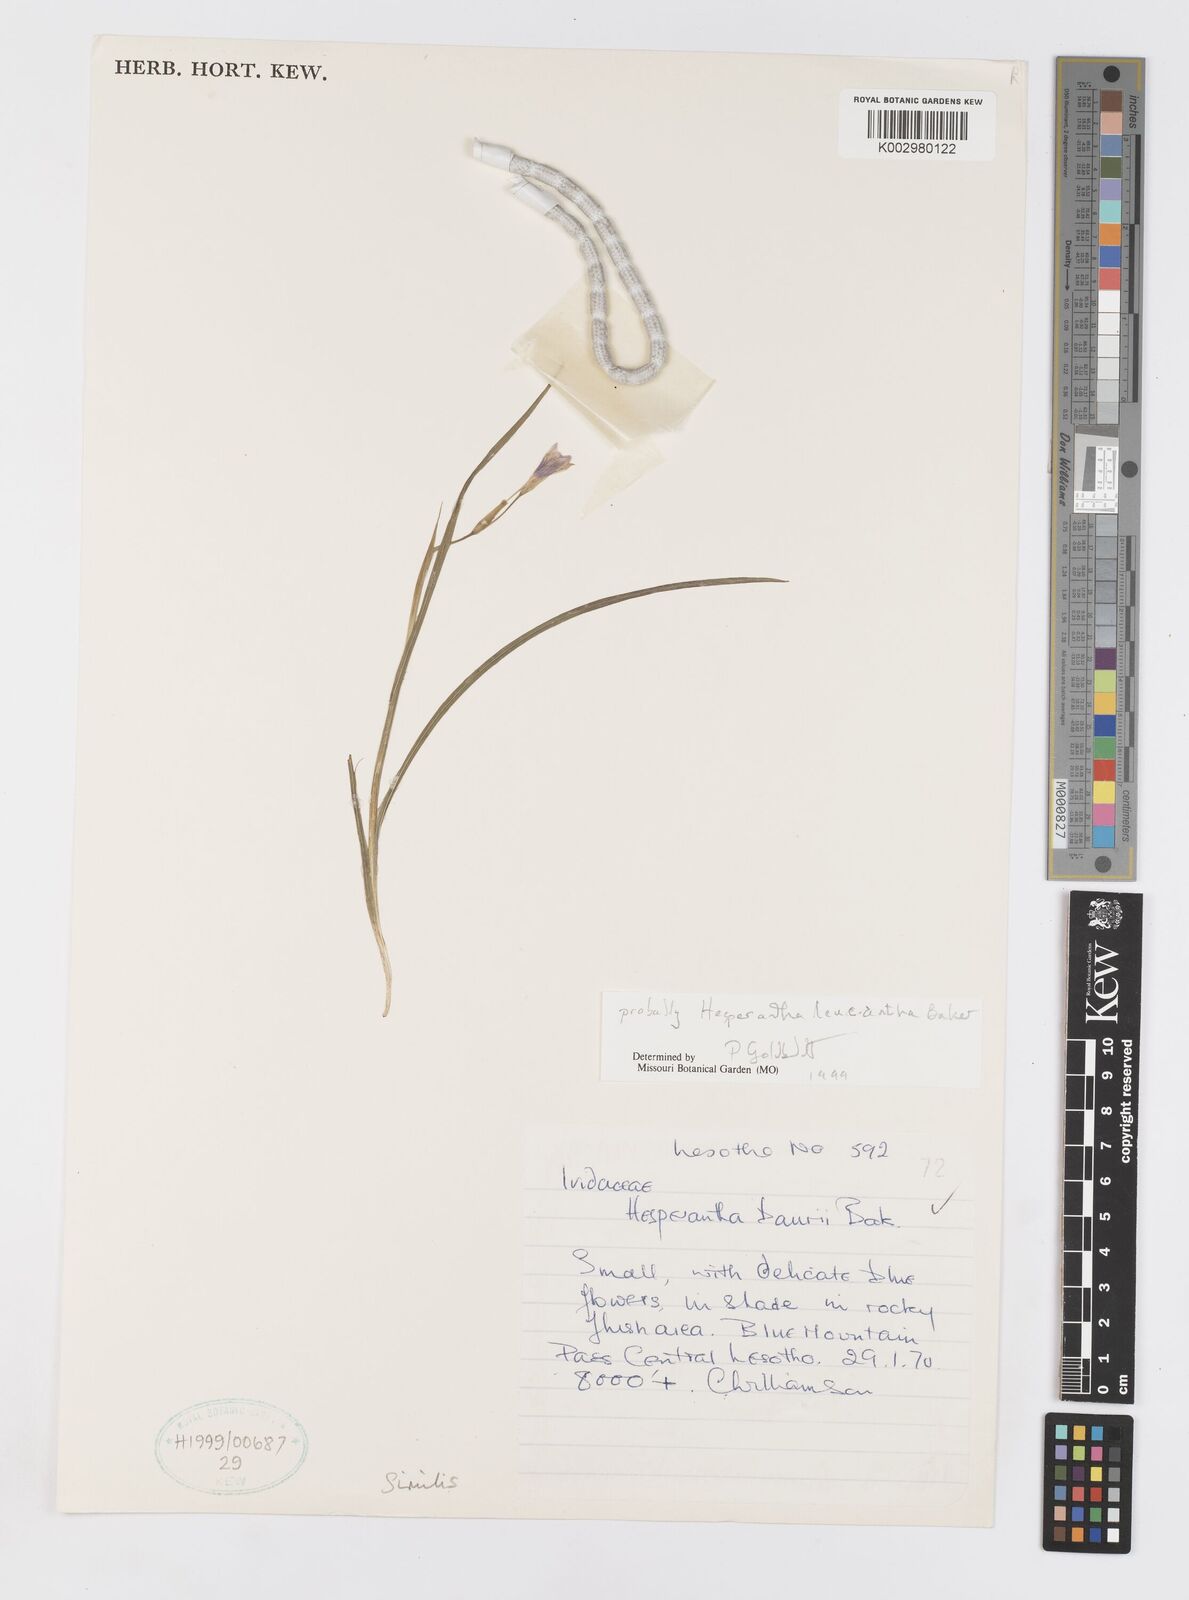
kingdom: Plantae
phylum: Tracheophyta
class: Liliopsida
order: Asparagales
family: Iridaceae
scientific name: Iridaceae
